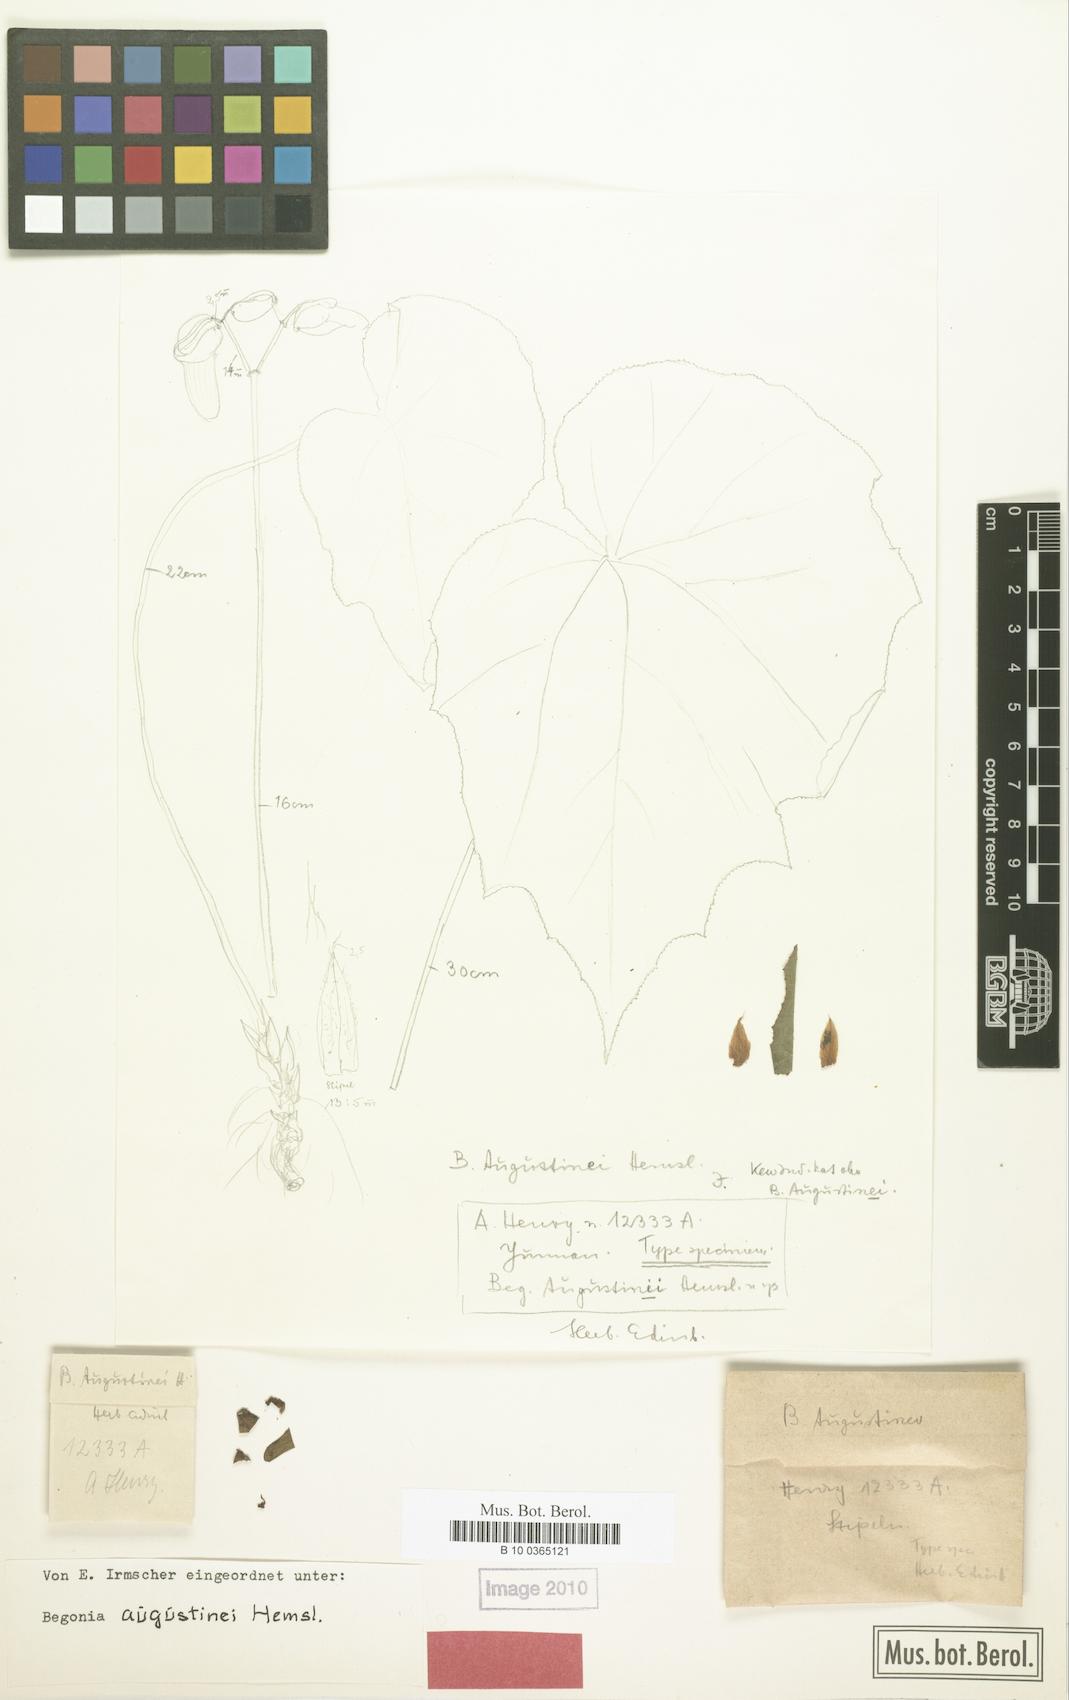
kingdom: Plantae
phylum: Tracheophyta
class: Magnoliopsida
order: Cucurbitales
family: Begoniaceae
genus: Begonia
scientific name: Begonia augustinei
